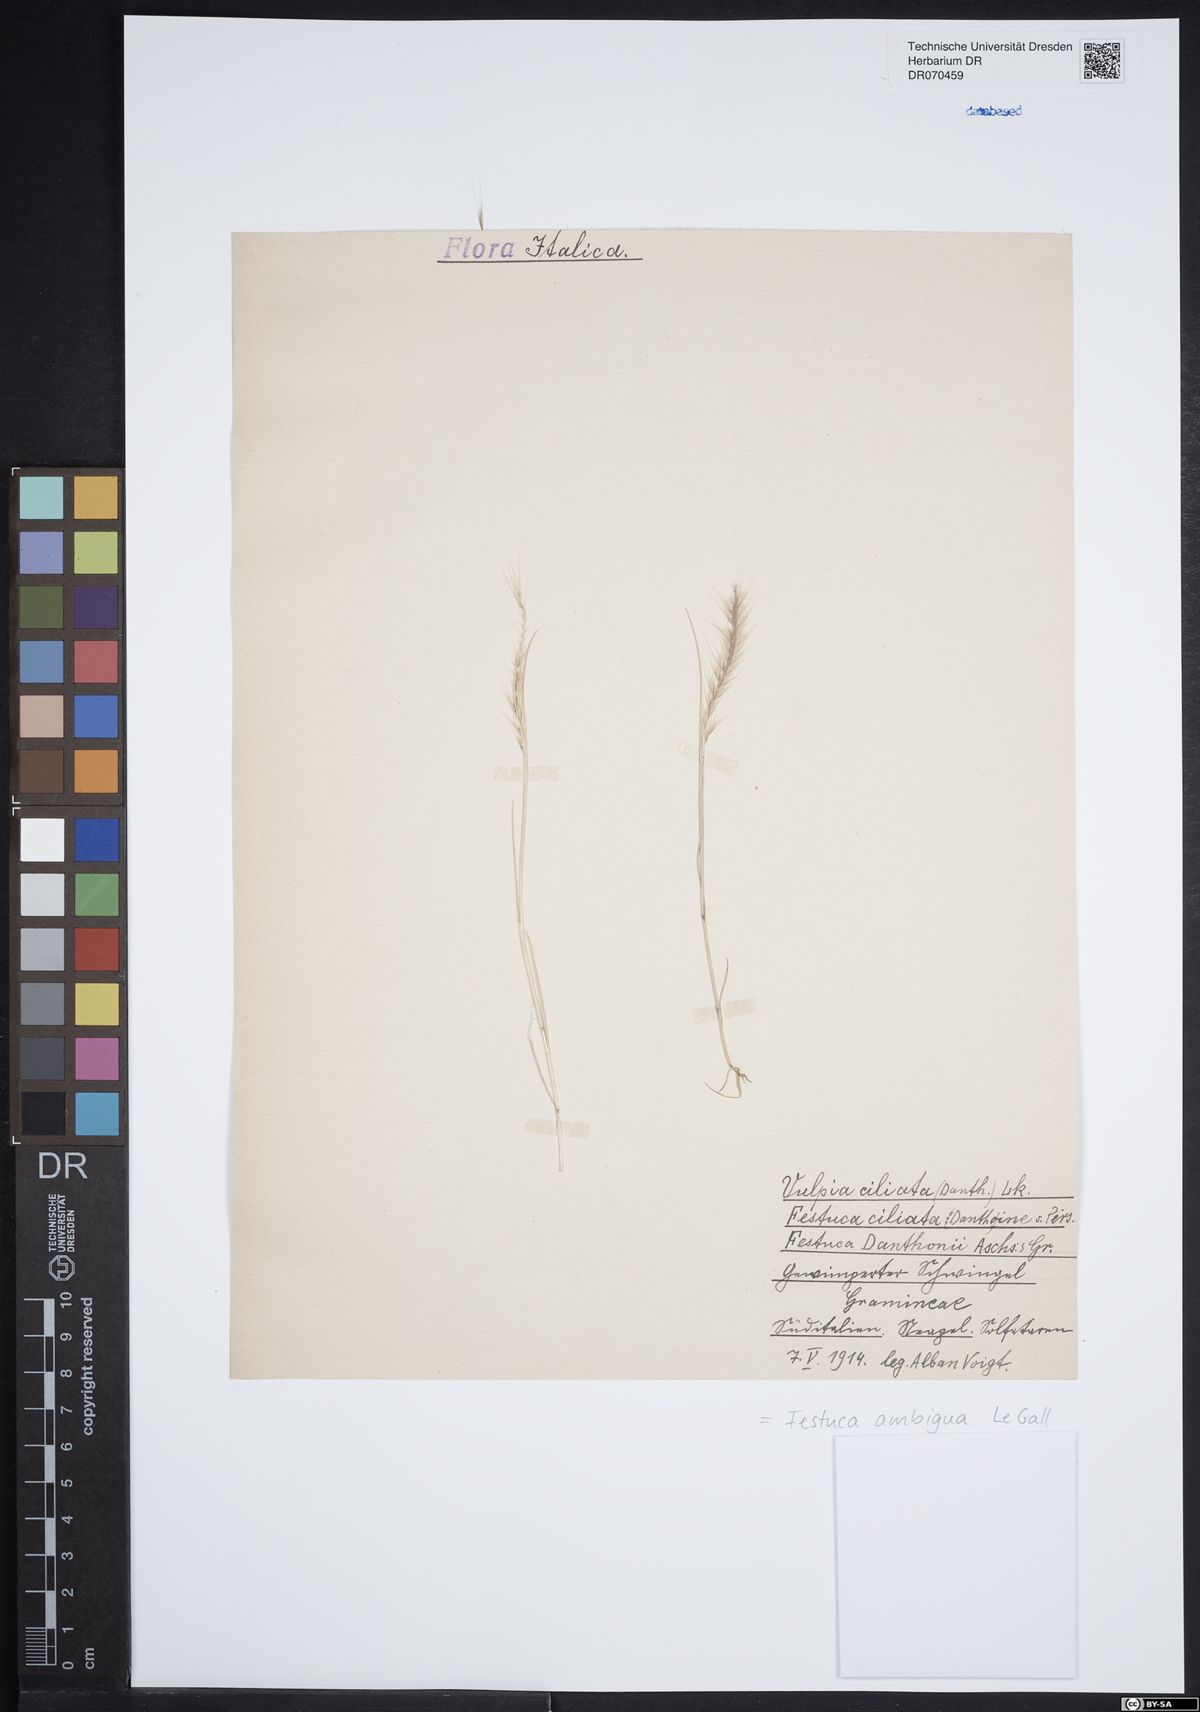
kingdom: Plantae
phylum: Tracheophyta
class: Liliopsida
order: Poales
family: Poaceae
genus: Festuca
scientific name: Festuca ambigua
